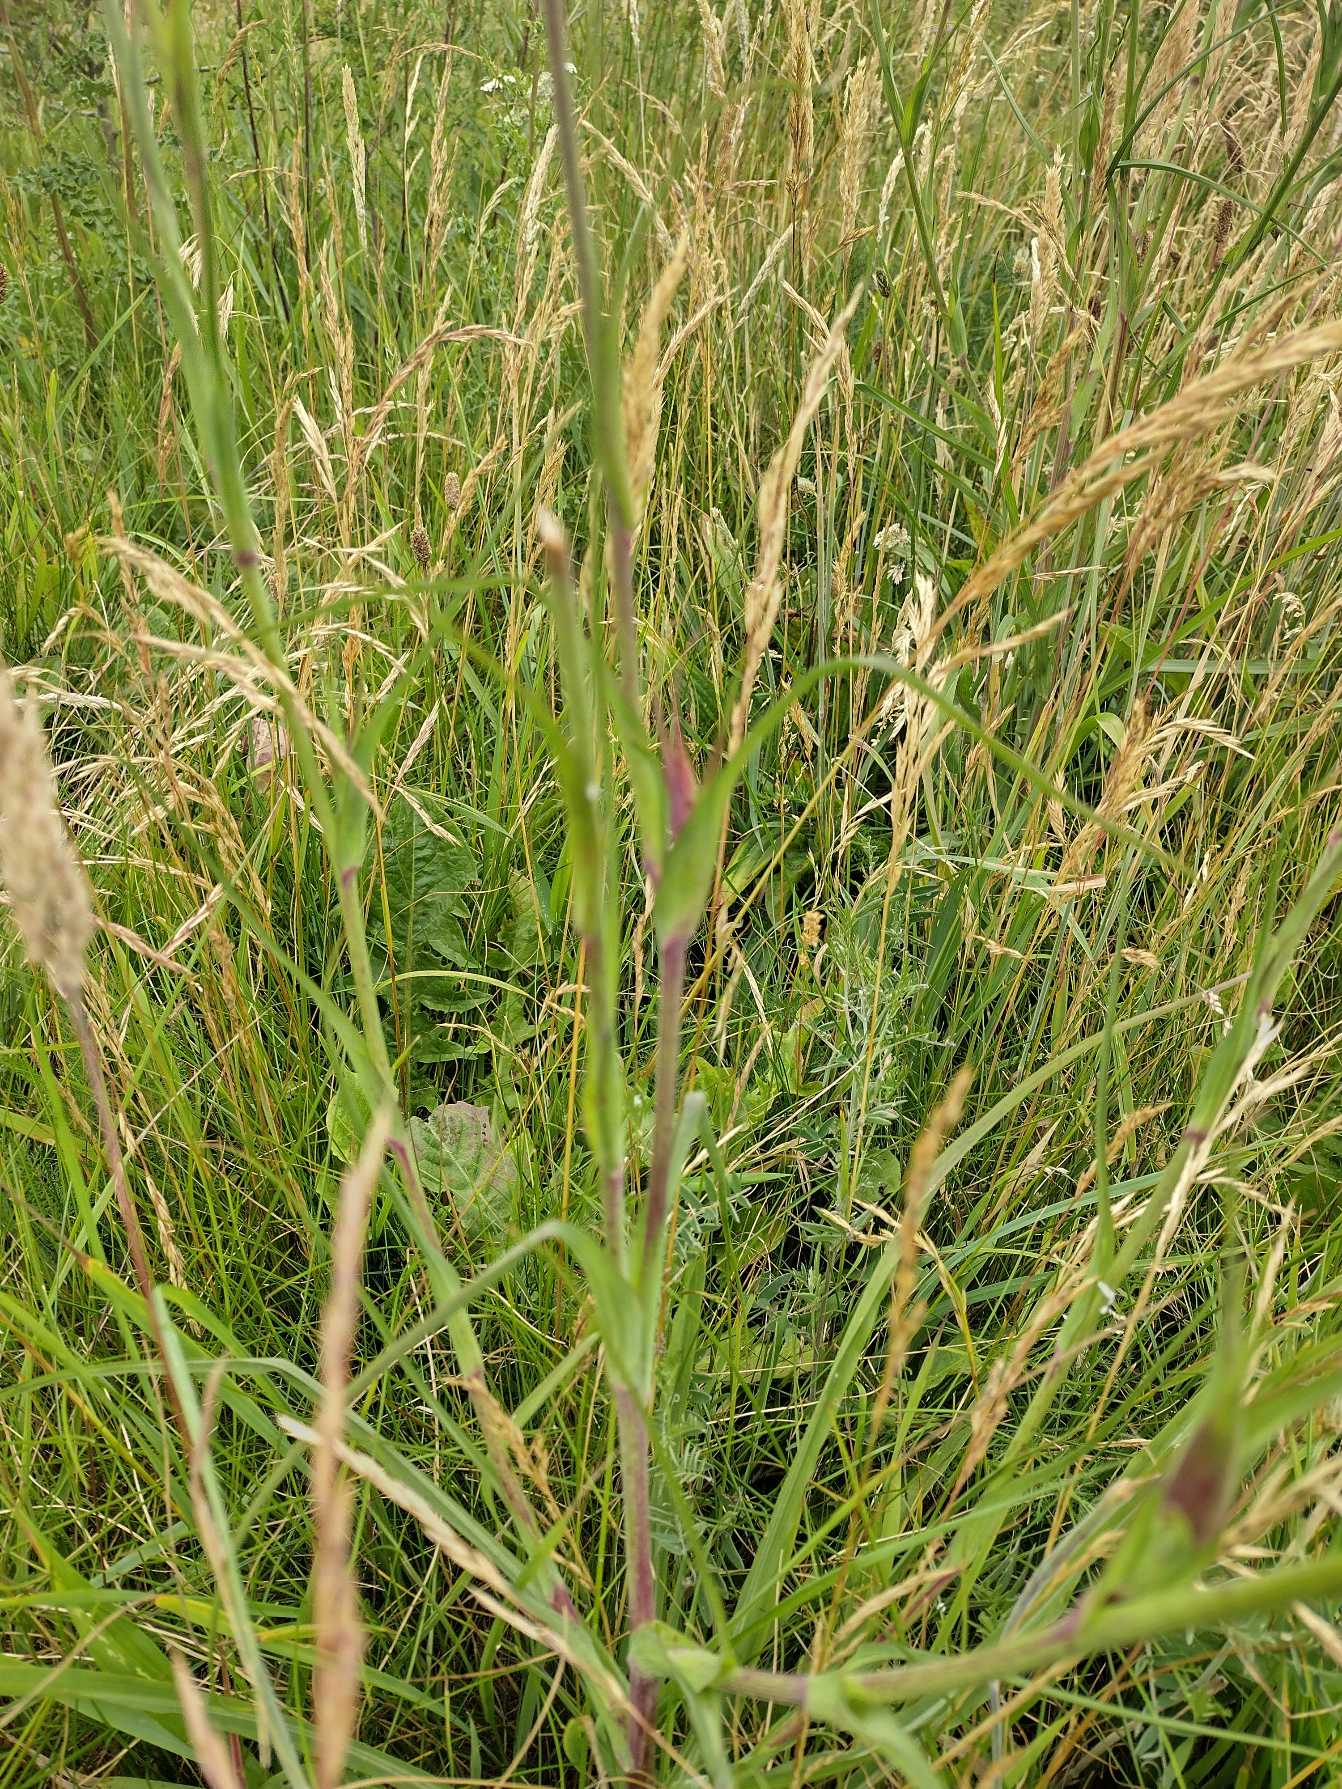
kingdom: Plantae
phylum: Tracheophyta
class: Magnoliopsida
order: Asterales
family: Asteraceae
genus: Tragopogon
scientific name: Tragopogon pratensis
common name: Gedeskæg
